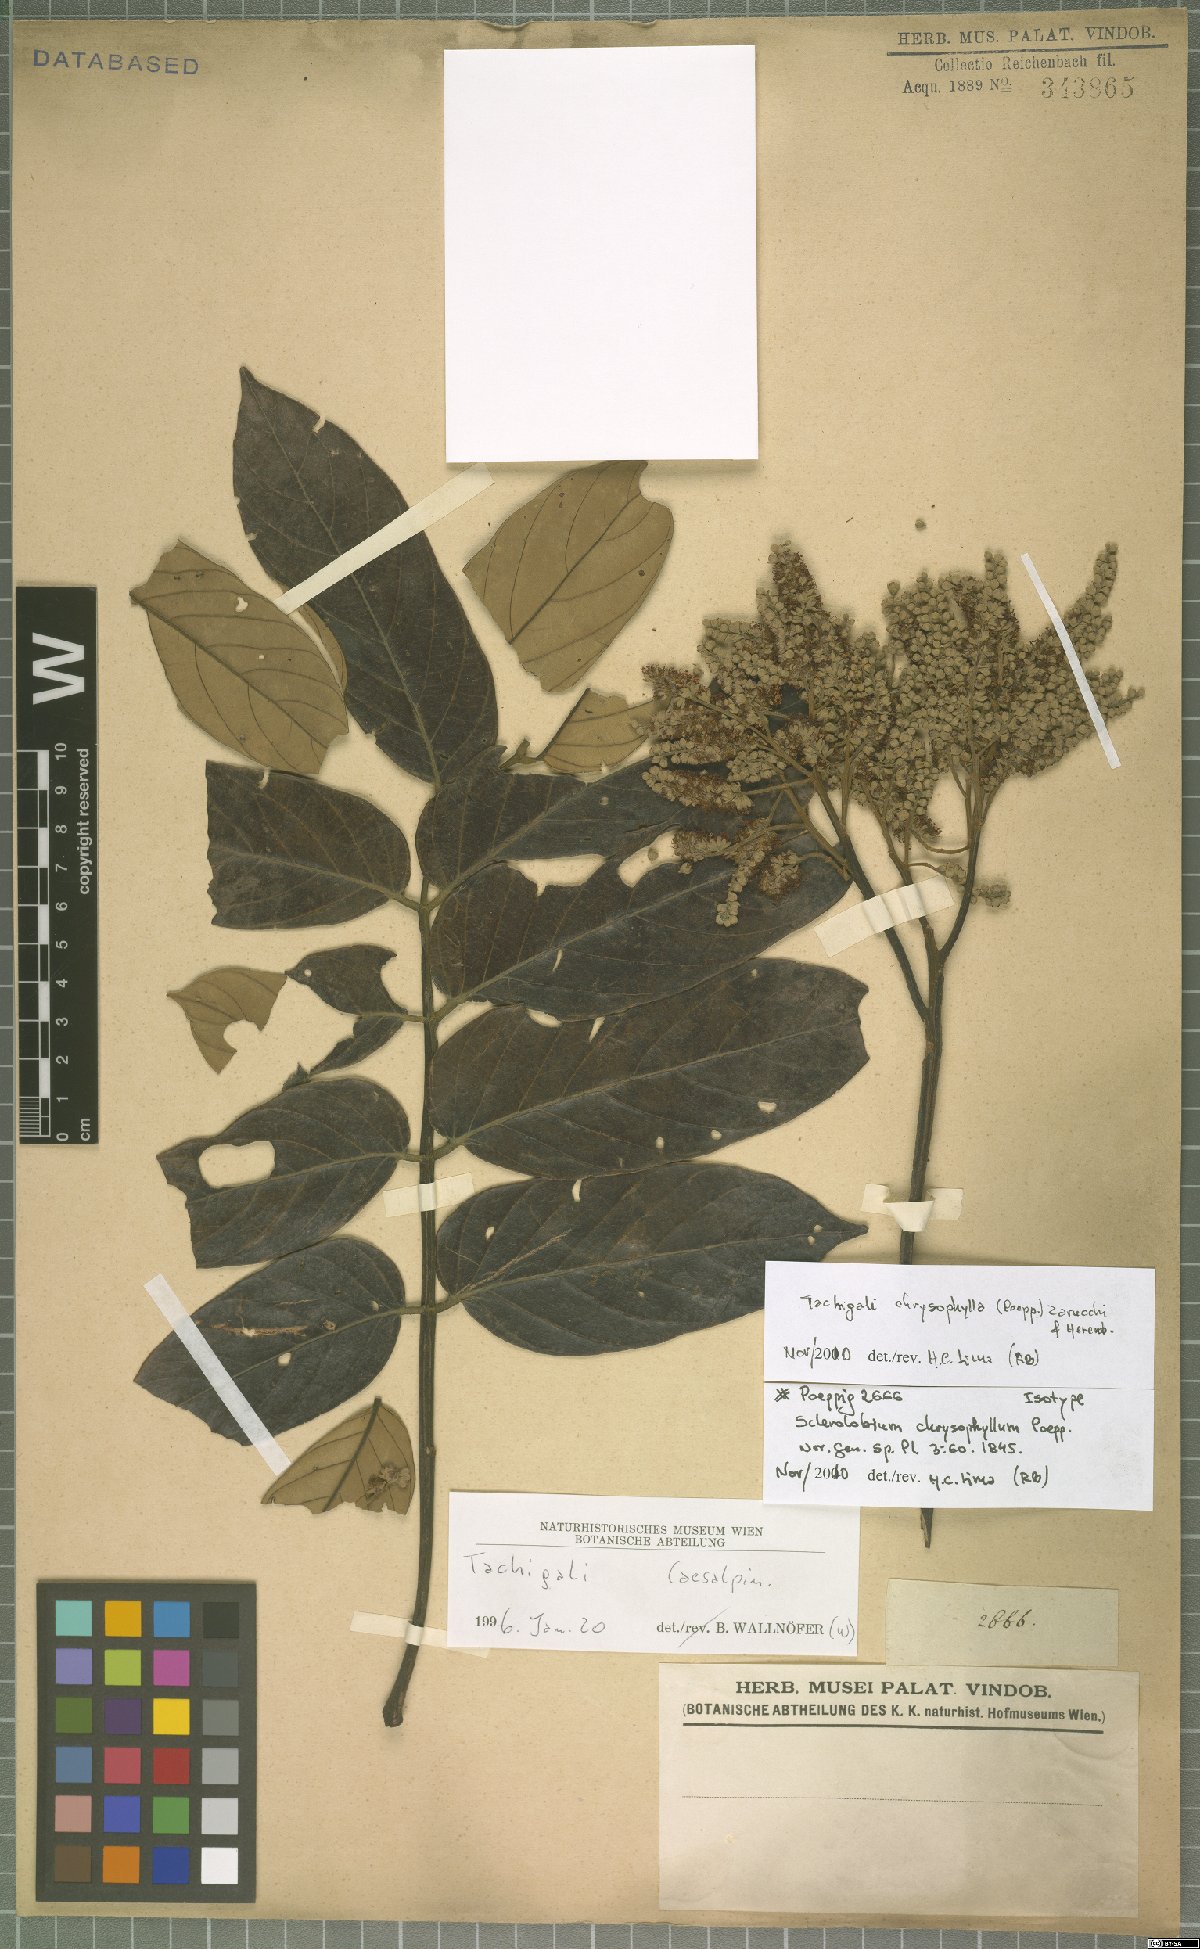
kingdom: Plantae
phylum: Tracheophyta
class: Magnoliopsida
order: Fabales
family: Fabaceae
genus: Tachigali
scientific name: Tachigali chrysophylla
